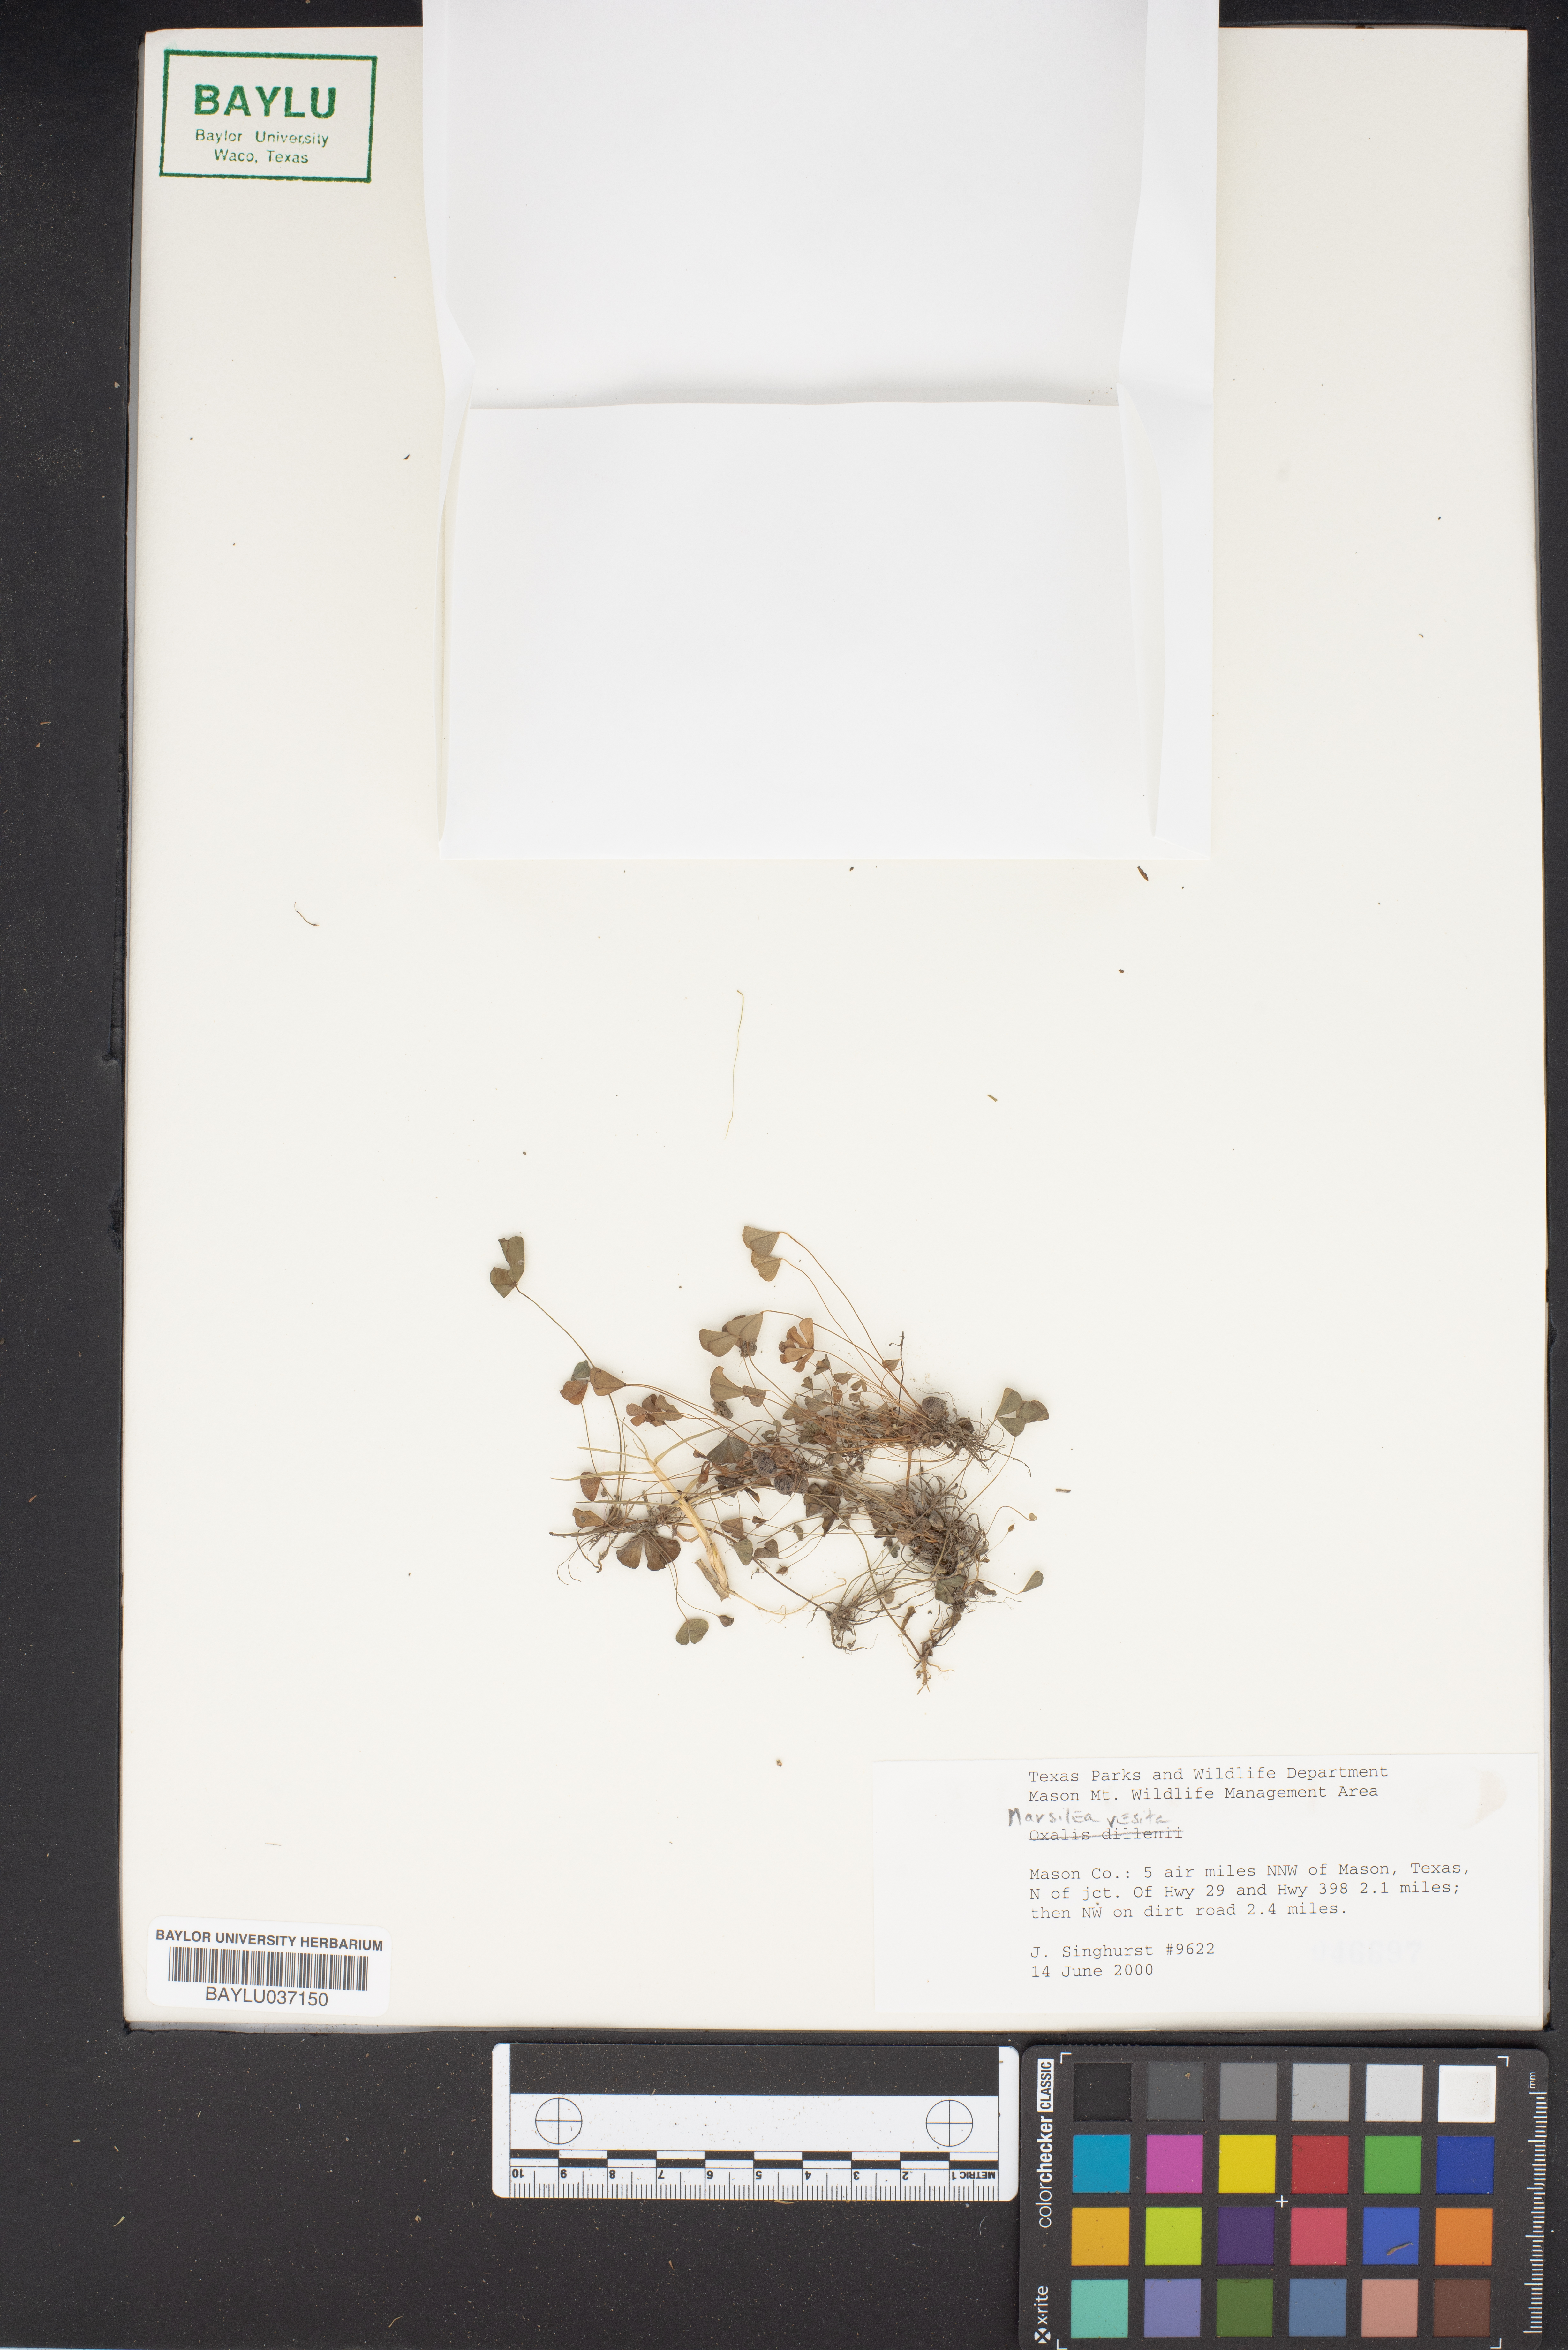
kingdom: Plantae
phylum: Tracheophyta
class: Polypodiopsida
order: Salviniales
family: Marsileaceae
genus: Marsilea
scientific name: Marsilea vestita
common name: Hooked-pepperwort
